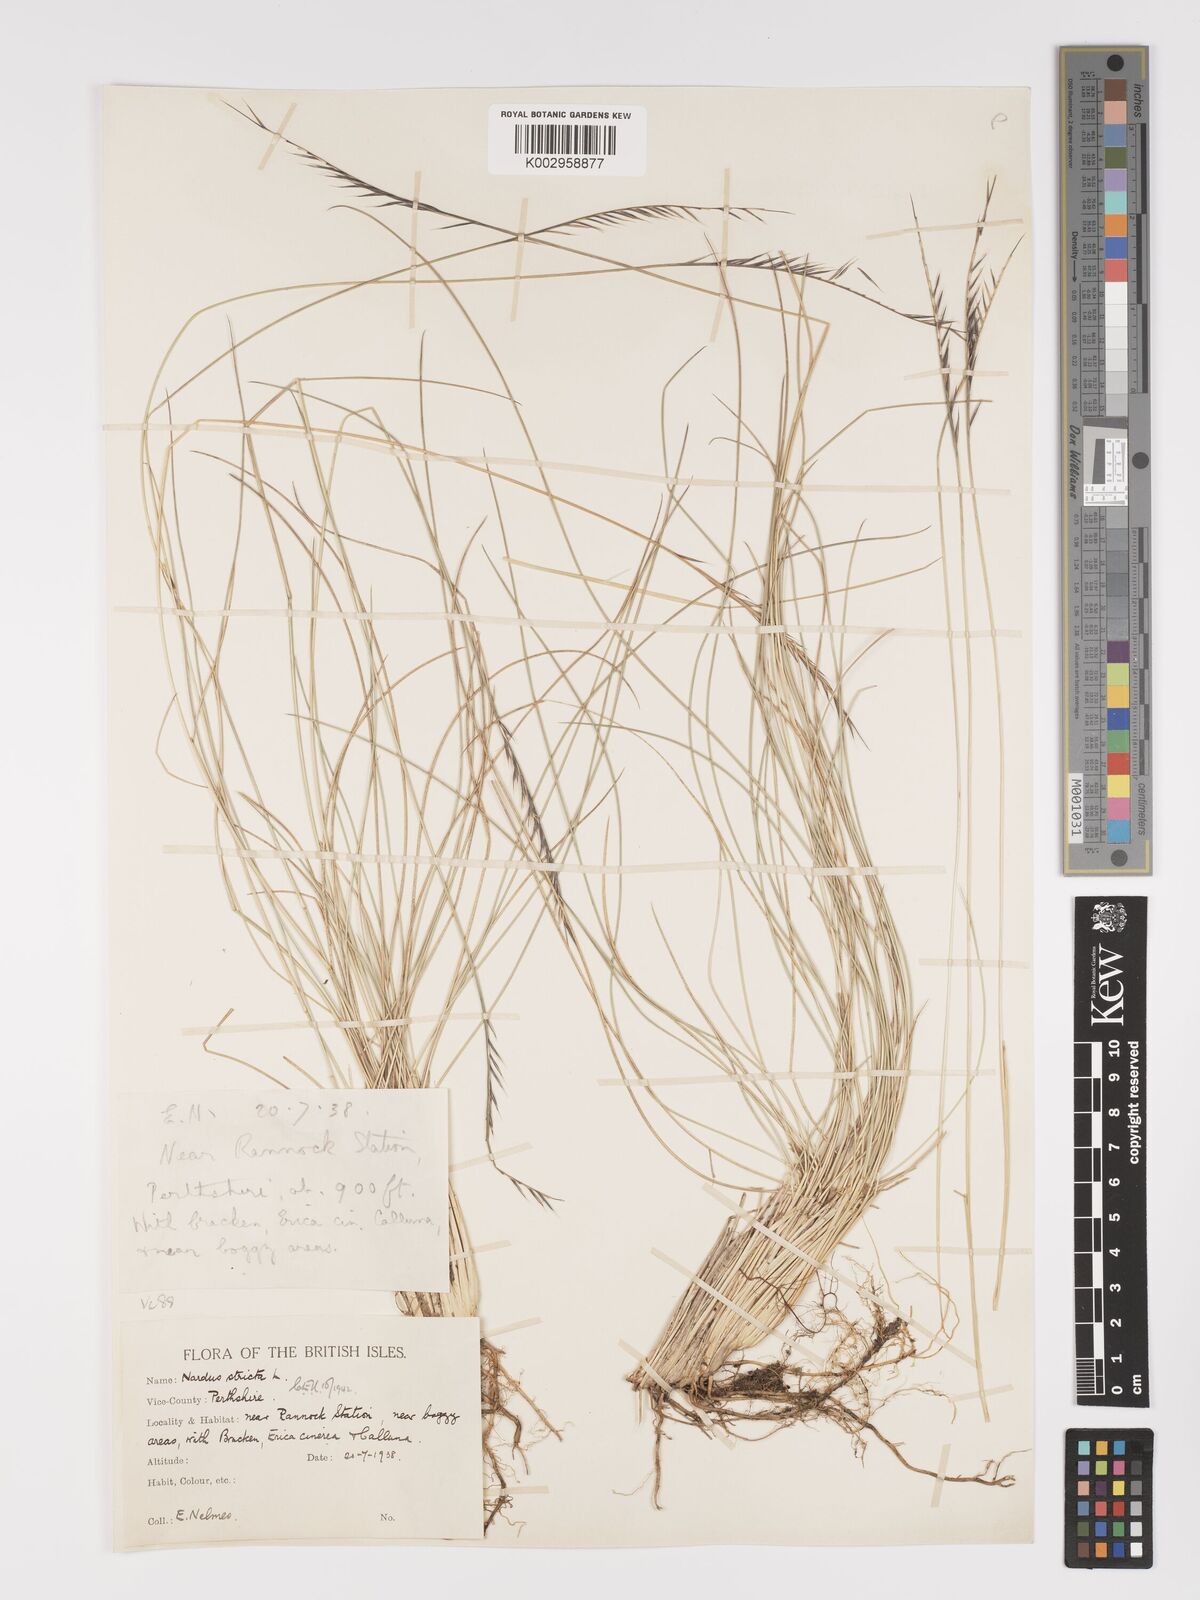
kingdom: Plantae
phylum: Tracheophyta
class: Liliopsida
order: Poales
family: Poaceae
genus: Nardus
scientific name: Nardus stricta
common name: Mat-grass
